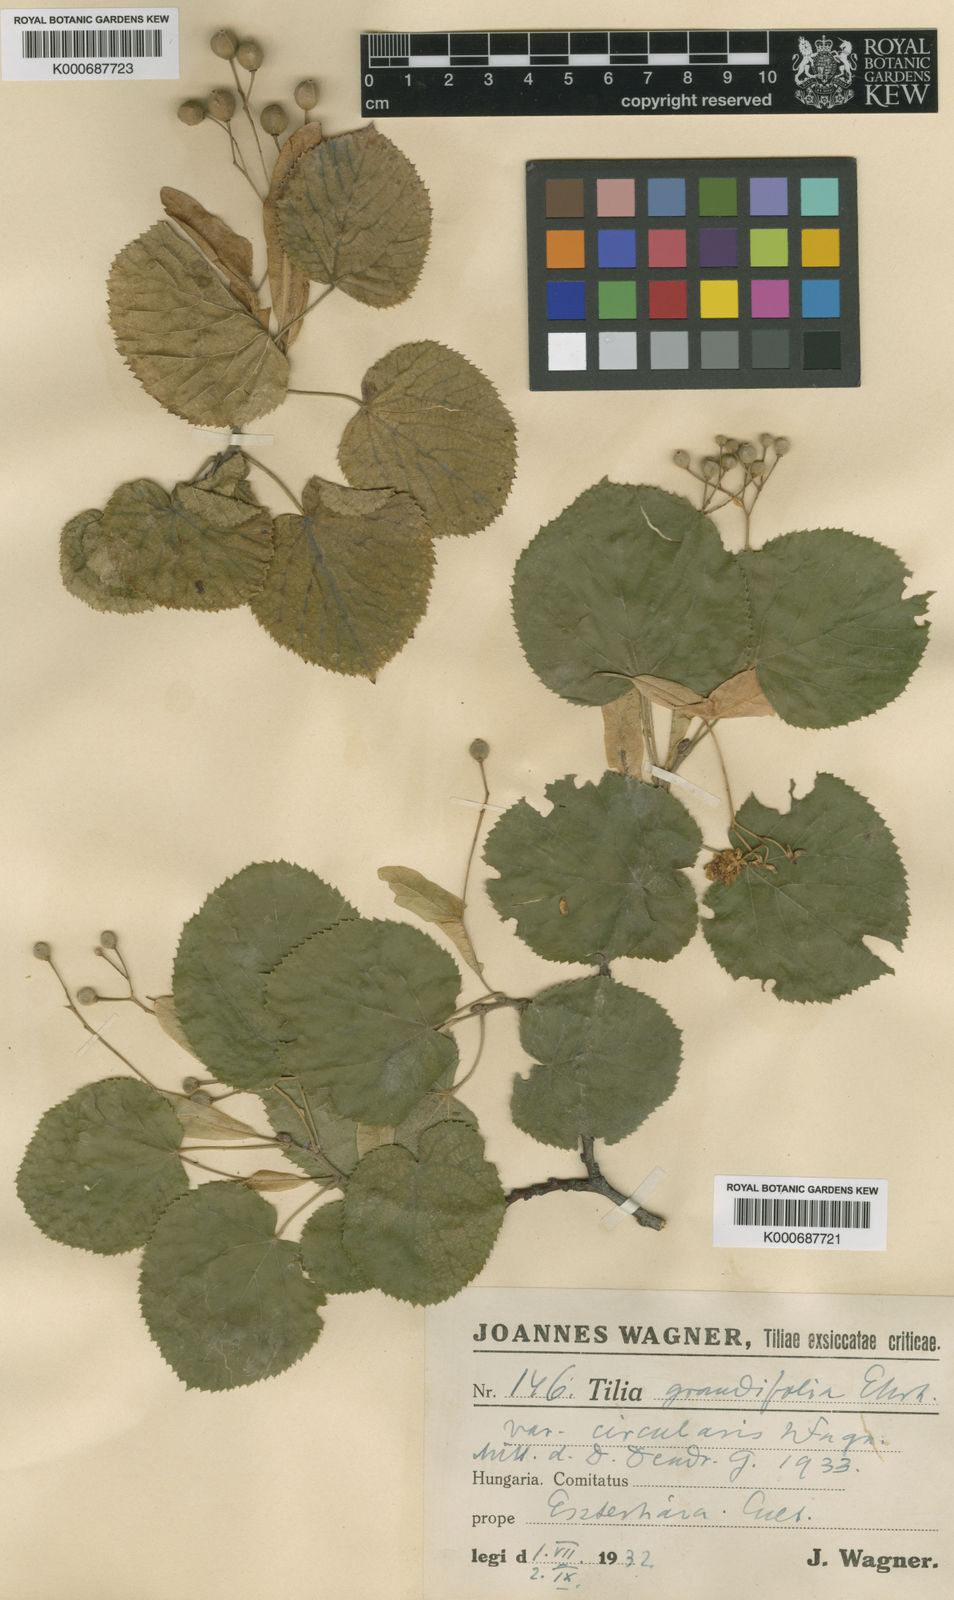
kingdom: Plantae
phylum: Tracheophyta
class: Magnoliopsida
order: Malvales
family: Malvaceae
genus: Tilia
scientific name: Tilia platyphyllos
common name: Large-leaved lime
